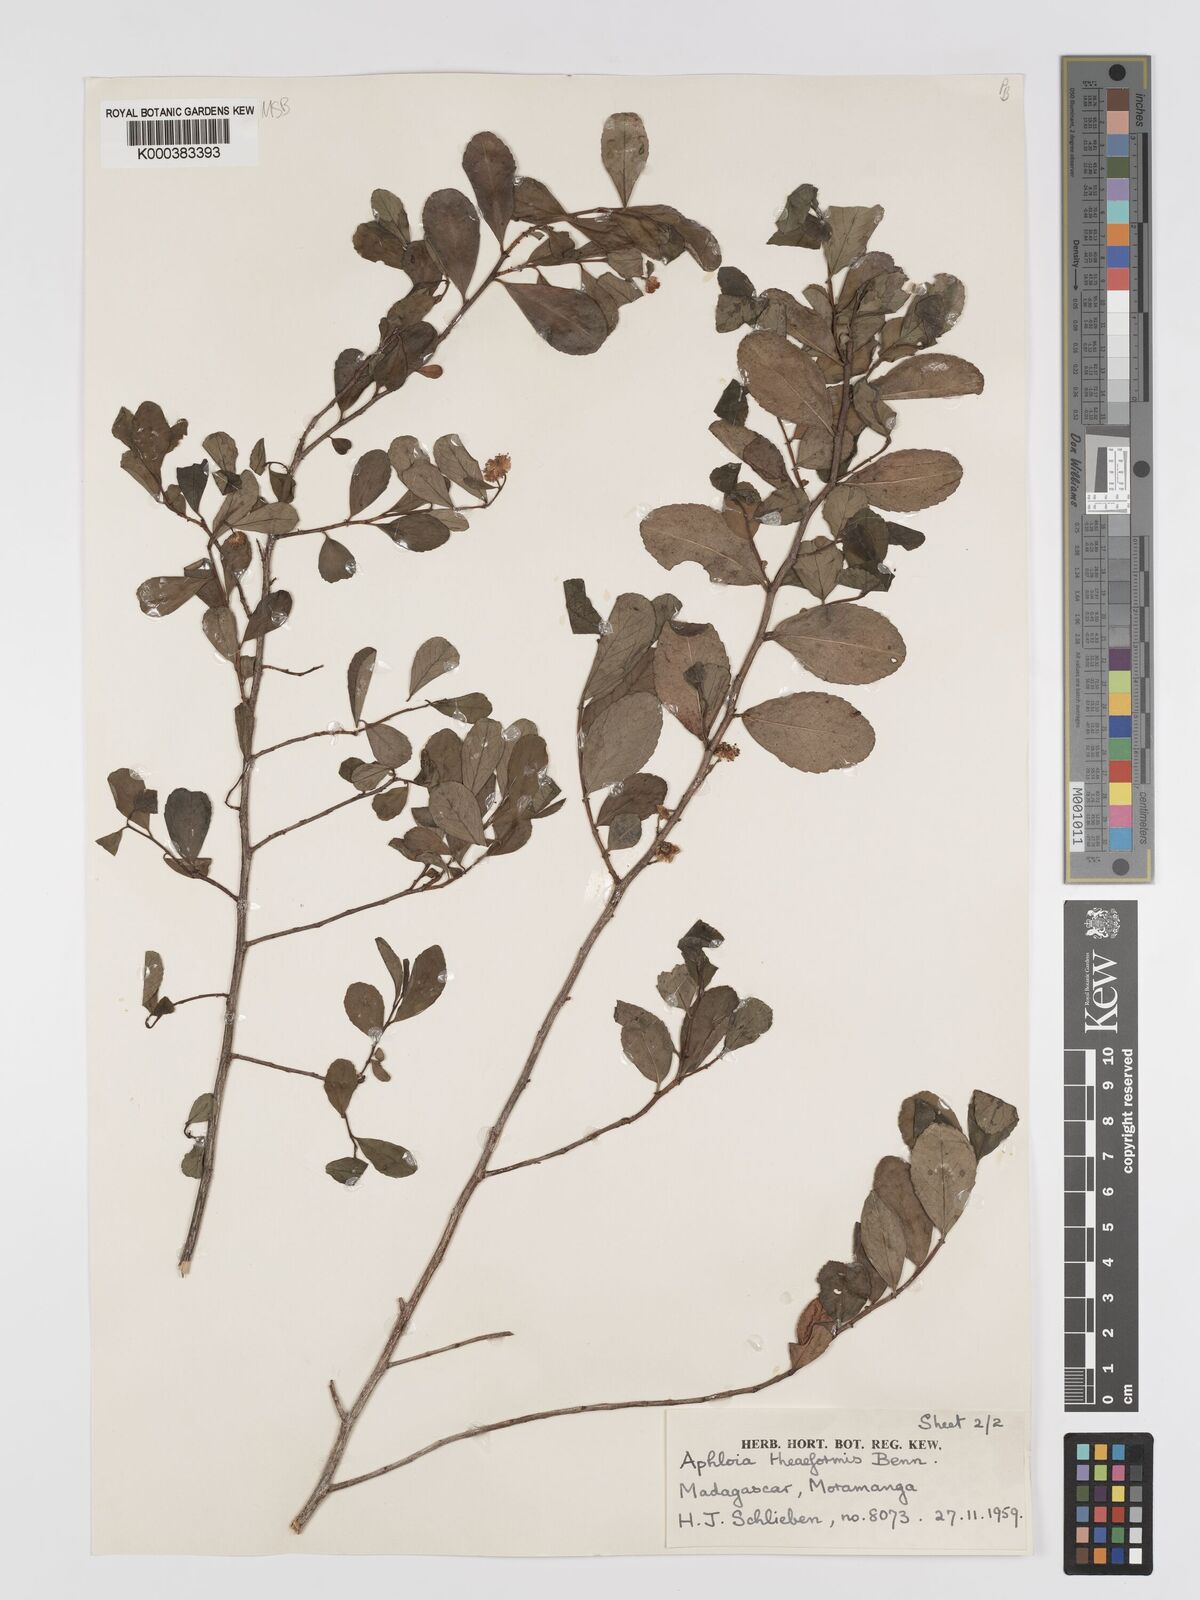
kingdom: Plantae
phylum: Tracheophyta
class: Magnoliopsida
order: Crossosomatales
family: Aphloiaceae
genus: Aphloia
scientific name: Aphloia theiformis
